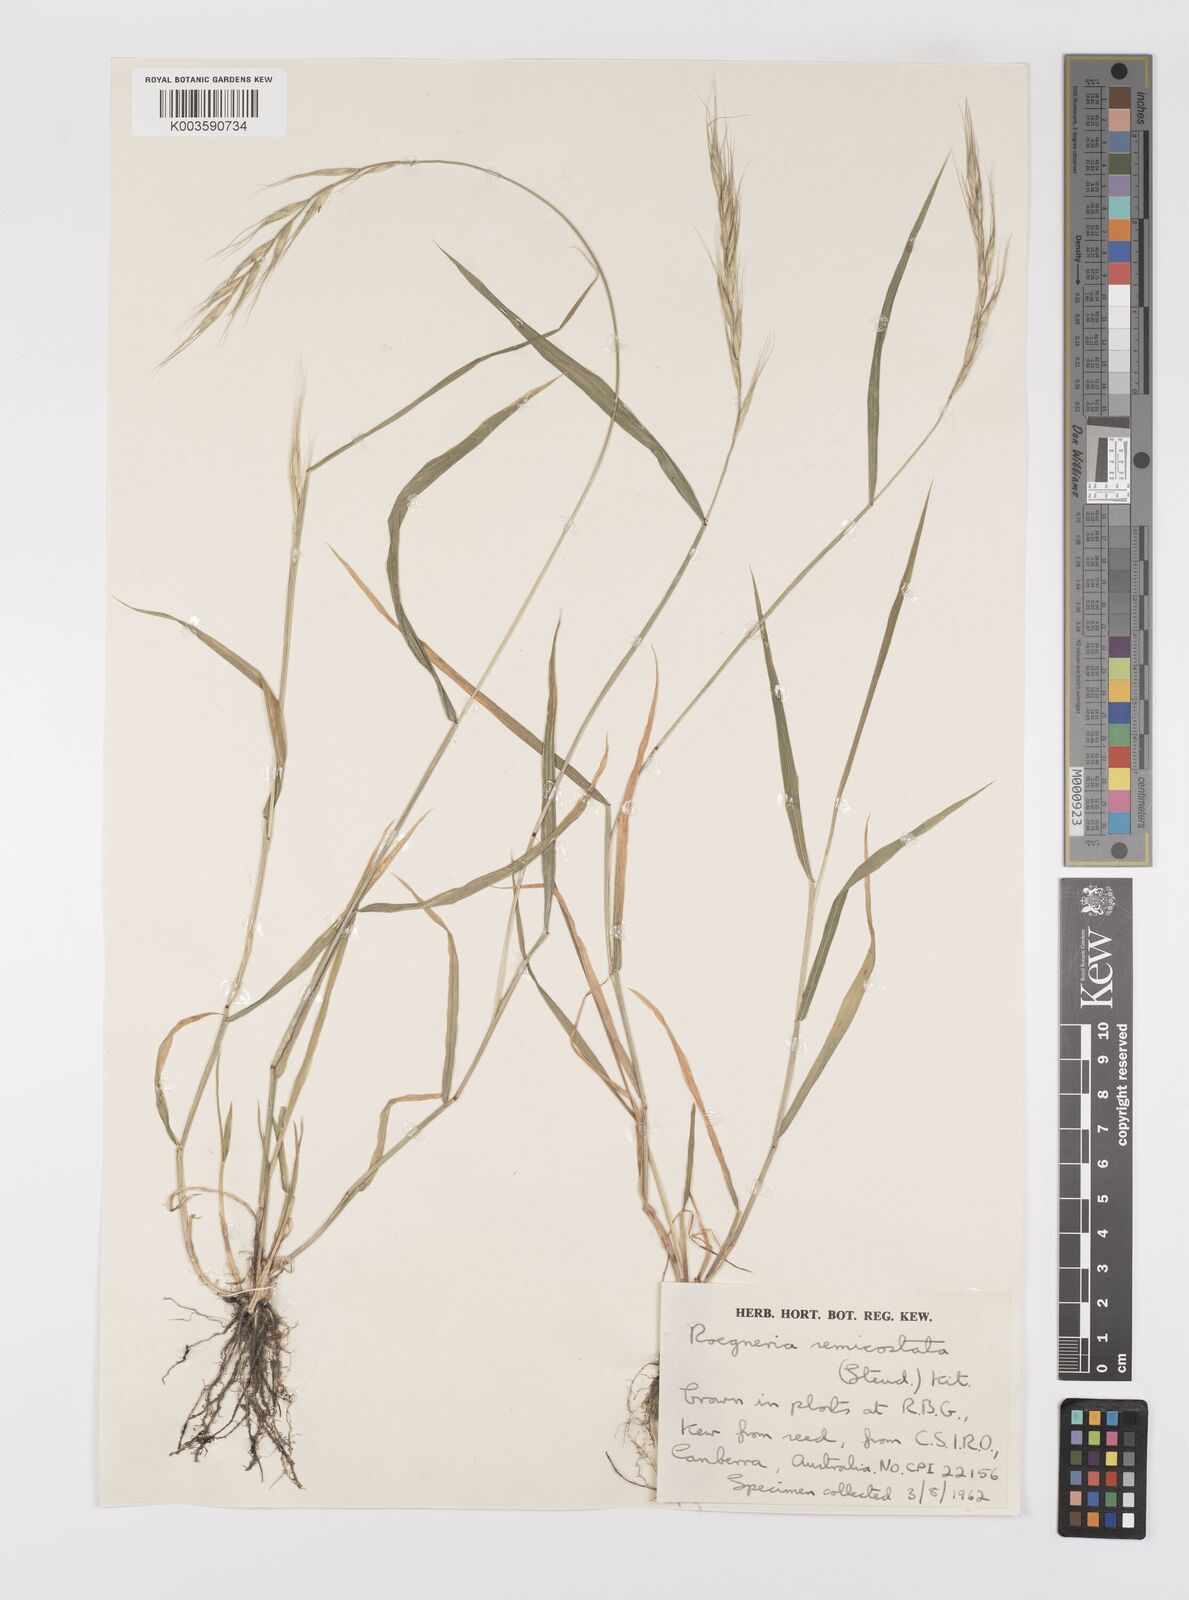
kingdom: Plantae
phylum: Tracheophyta
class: Liliopsida
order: Poales
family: Poaceae
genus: Elymus
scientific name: Elymus semicostatus
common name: Drooping wildrye
